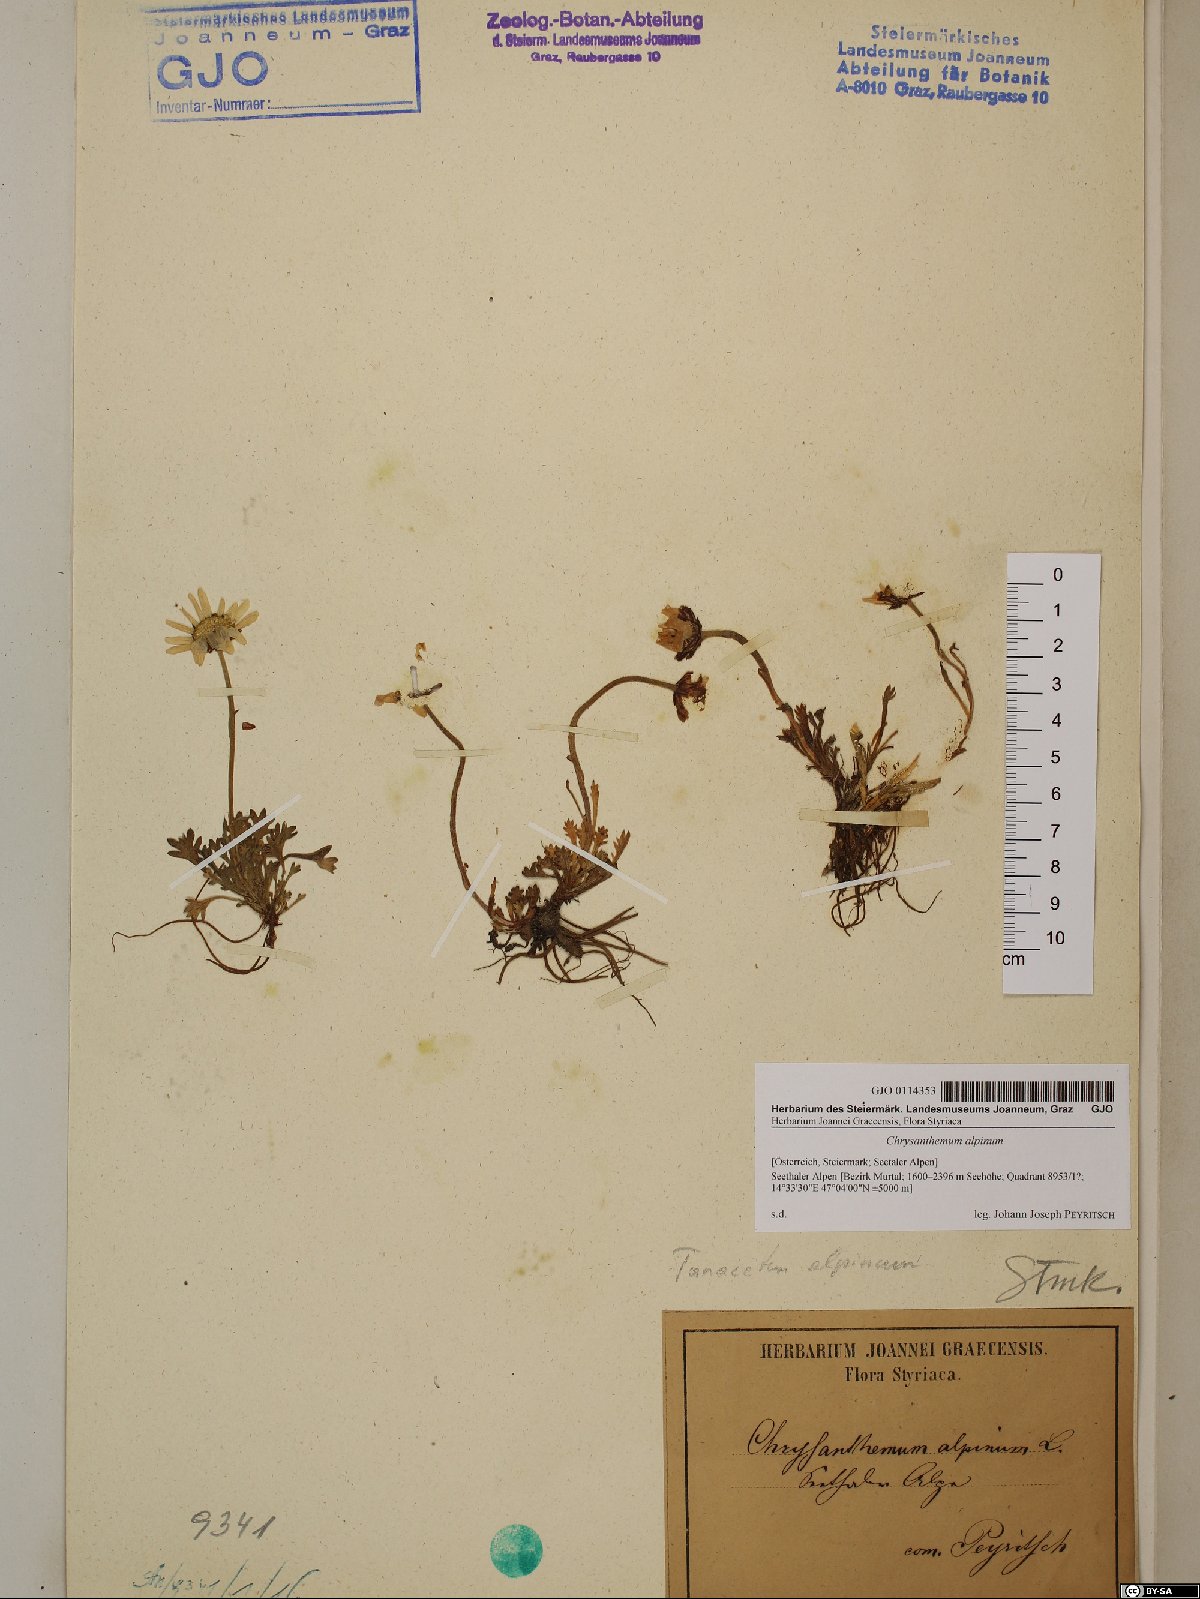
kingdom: Plantae
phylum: Tracheophyta
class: Magnoliopsida
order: Asterales
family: Asteraceae
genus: Leucanthemopsis
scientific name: Leucanthemopsis alpina
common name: Alpine moon daisy
